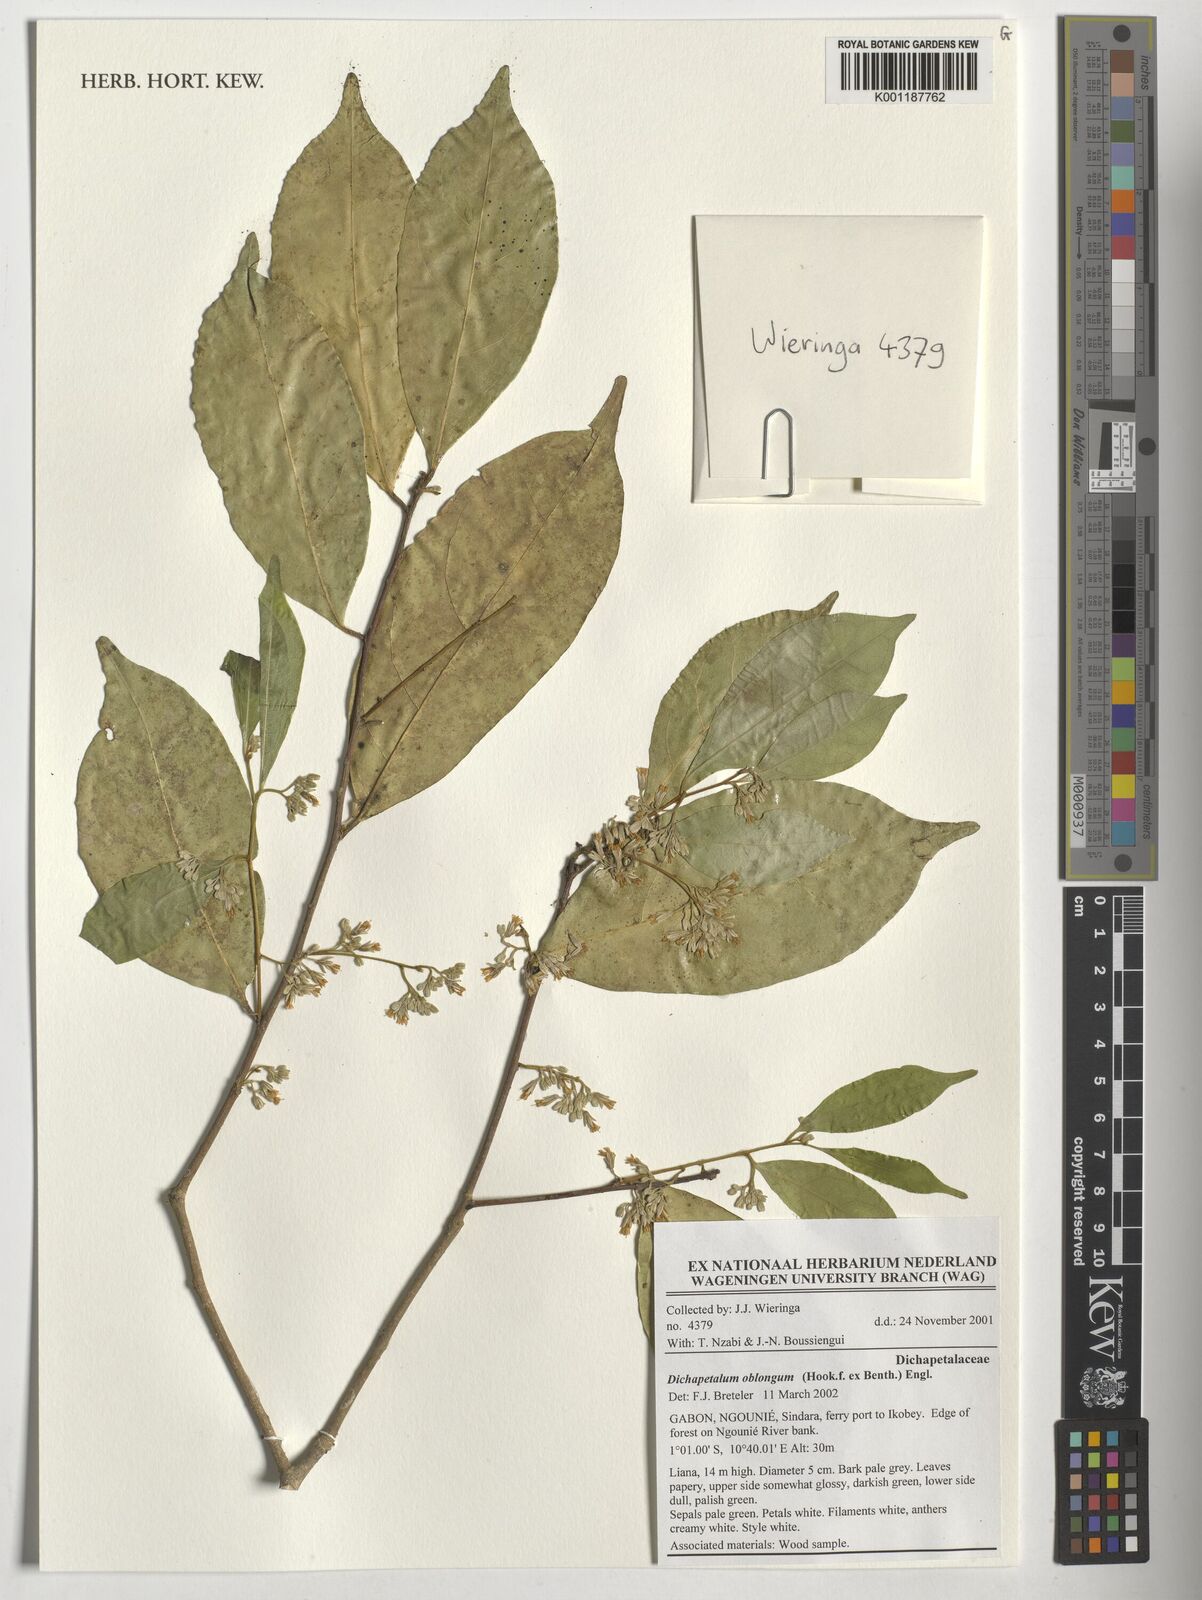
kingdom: Plantae
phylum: Tracheophyta
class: Magnoliopsida
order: Malpighiales
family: Dichapetalaceae
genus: Dichapetalum
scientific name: Dichapetalum oblongum
